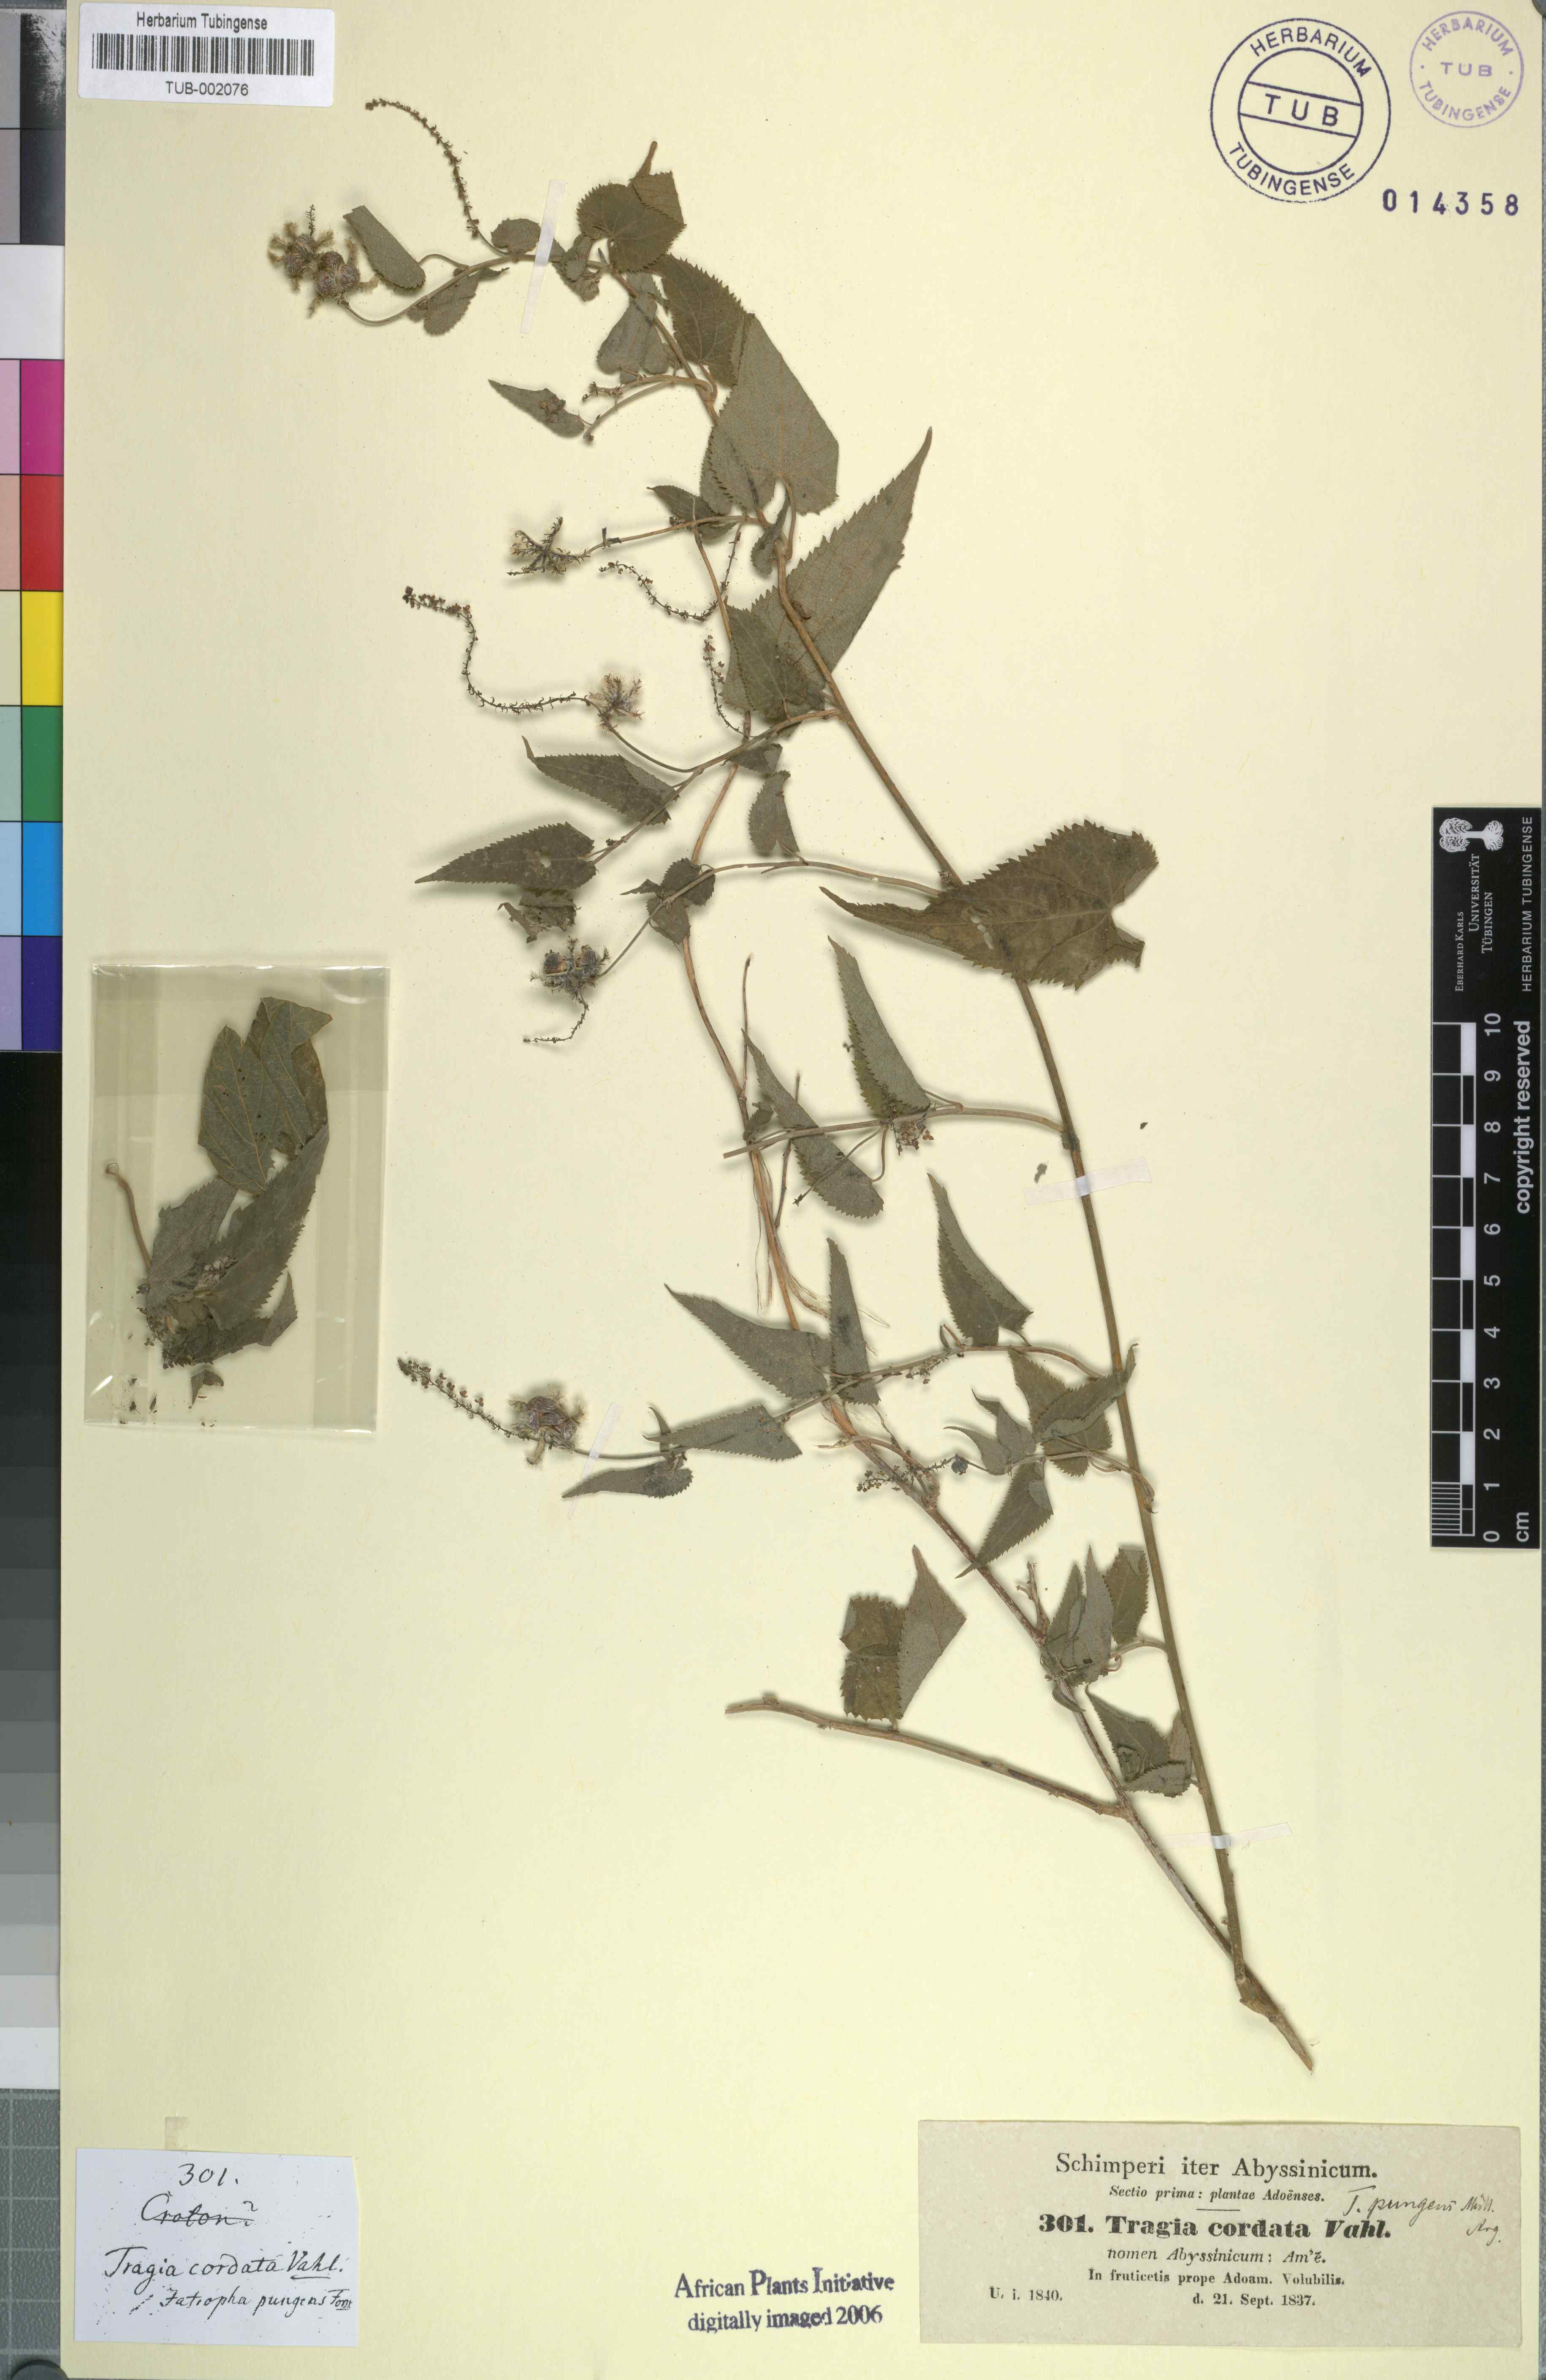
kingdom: Plantae
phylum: Tracheophyta
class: Magnoliopsida
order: Malpighiales
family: Euphorbiaceae
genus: Tragia
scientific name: Tragia pungens
